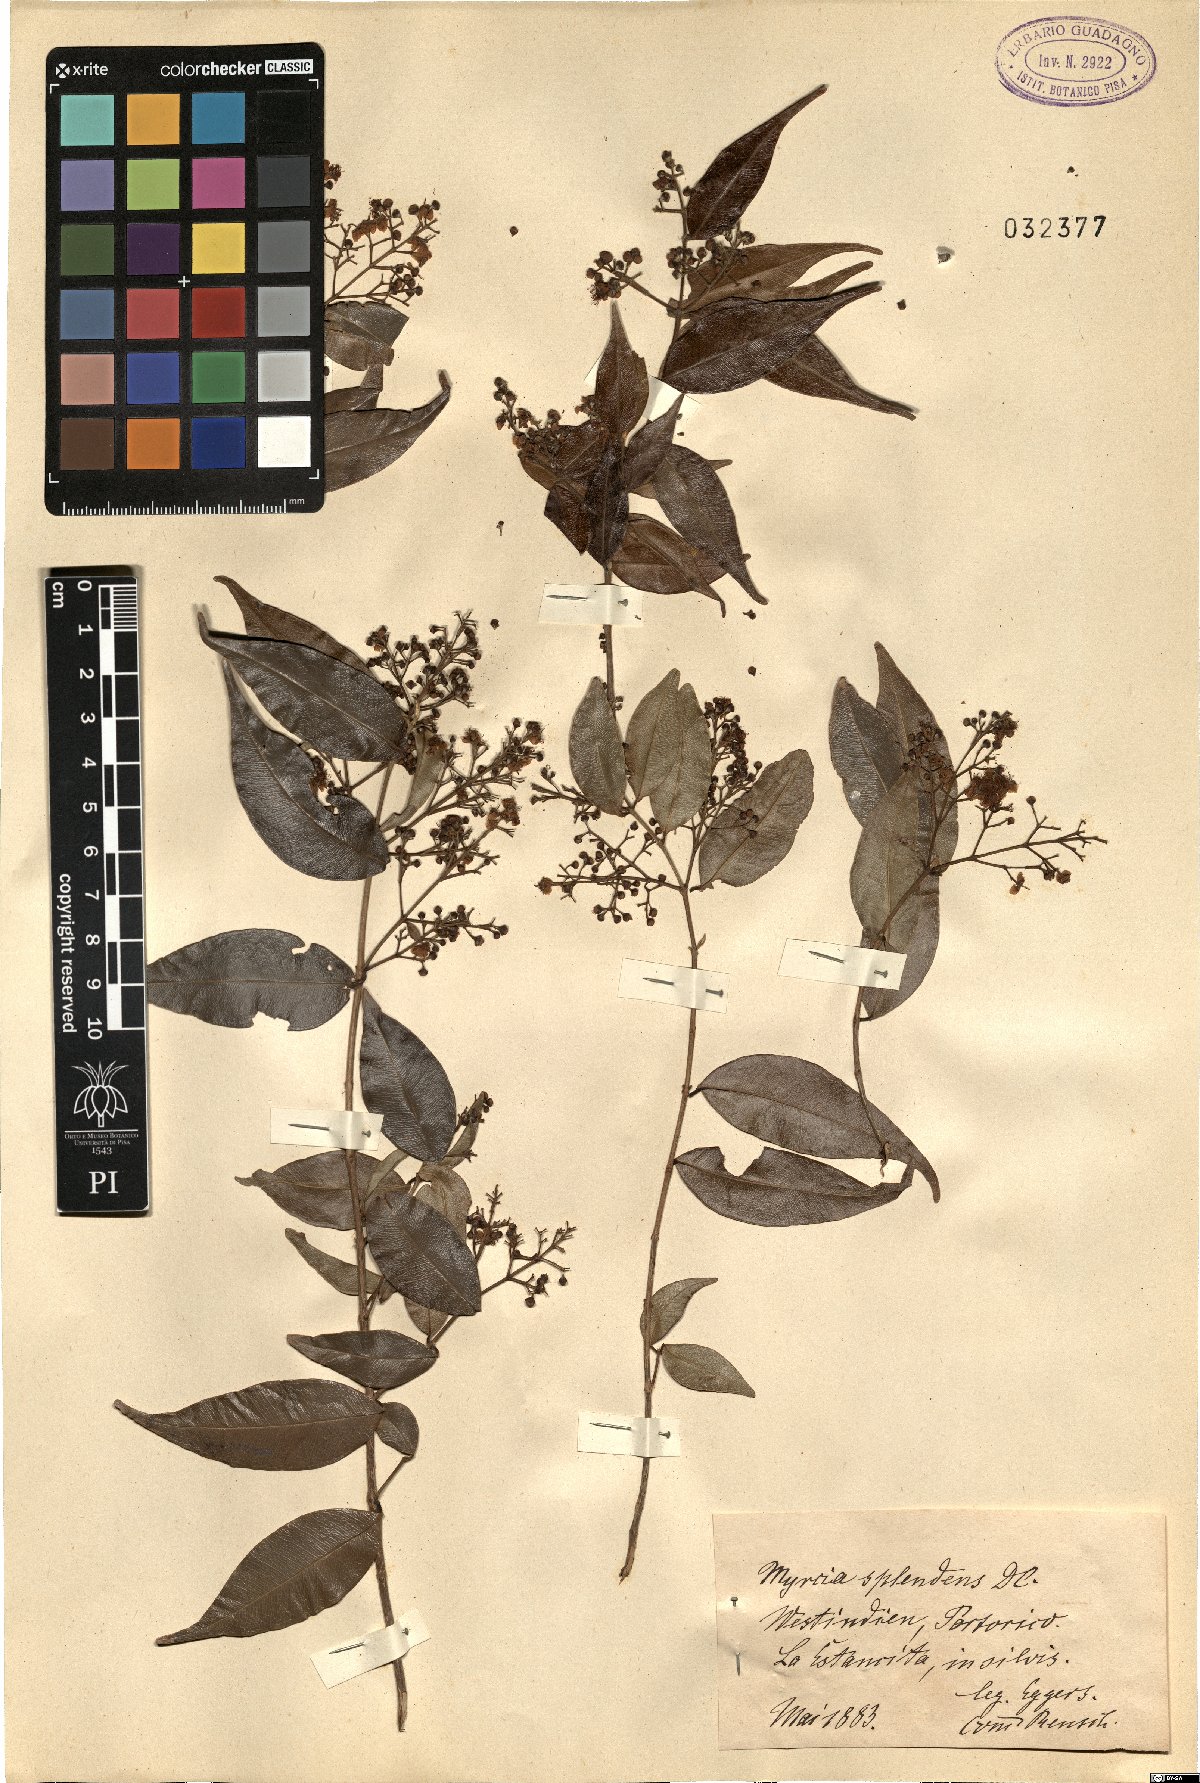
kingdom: Plantae
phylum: Tracheophyta
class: Magnoliopsida
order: Myrtales
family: Myrtaceae
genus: Myrcia
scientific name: Myrcia splendens
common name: Surinam cherry
